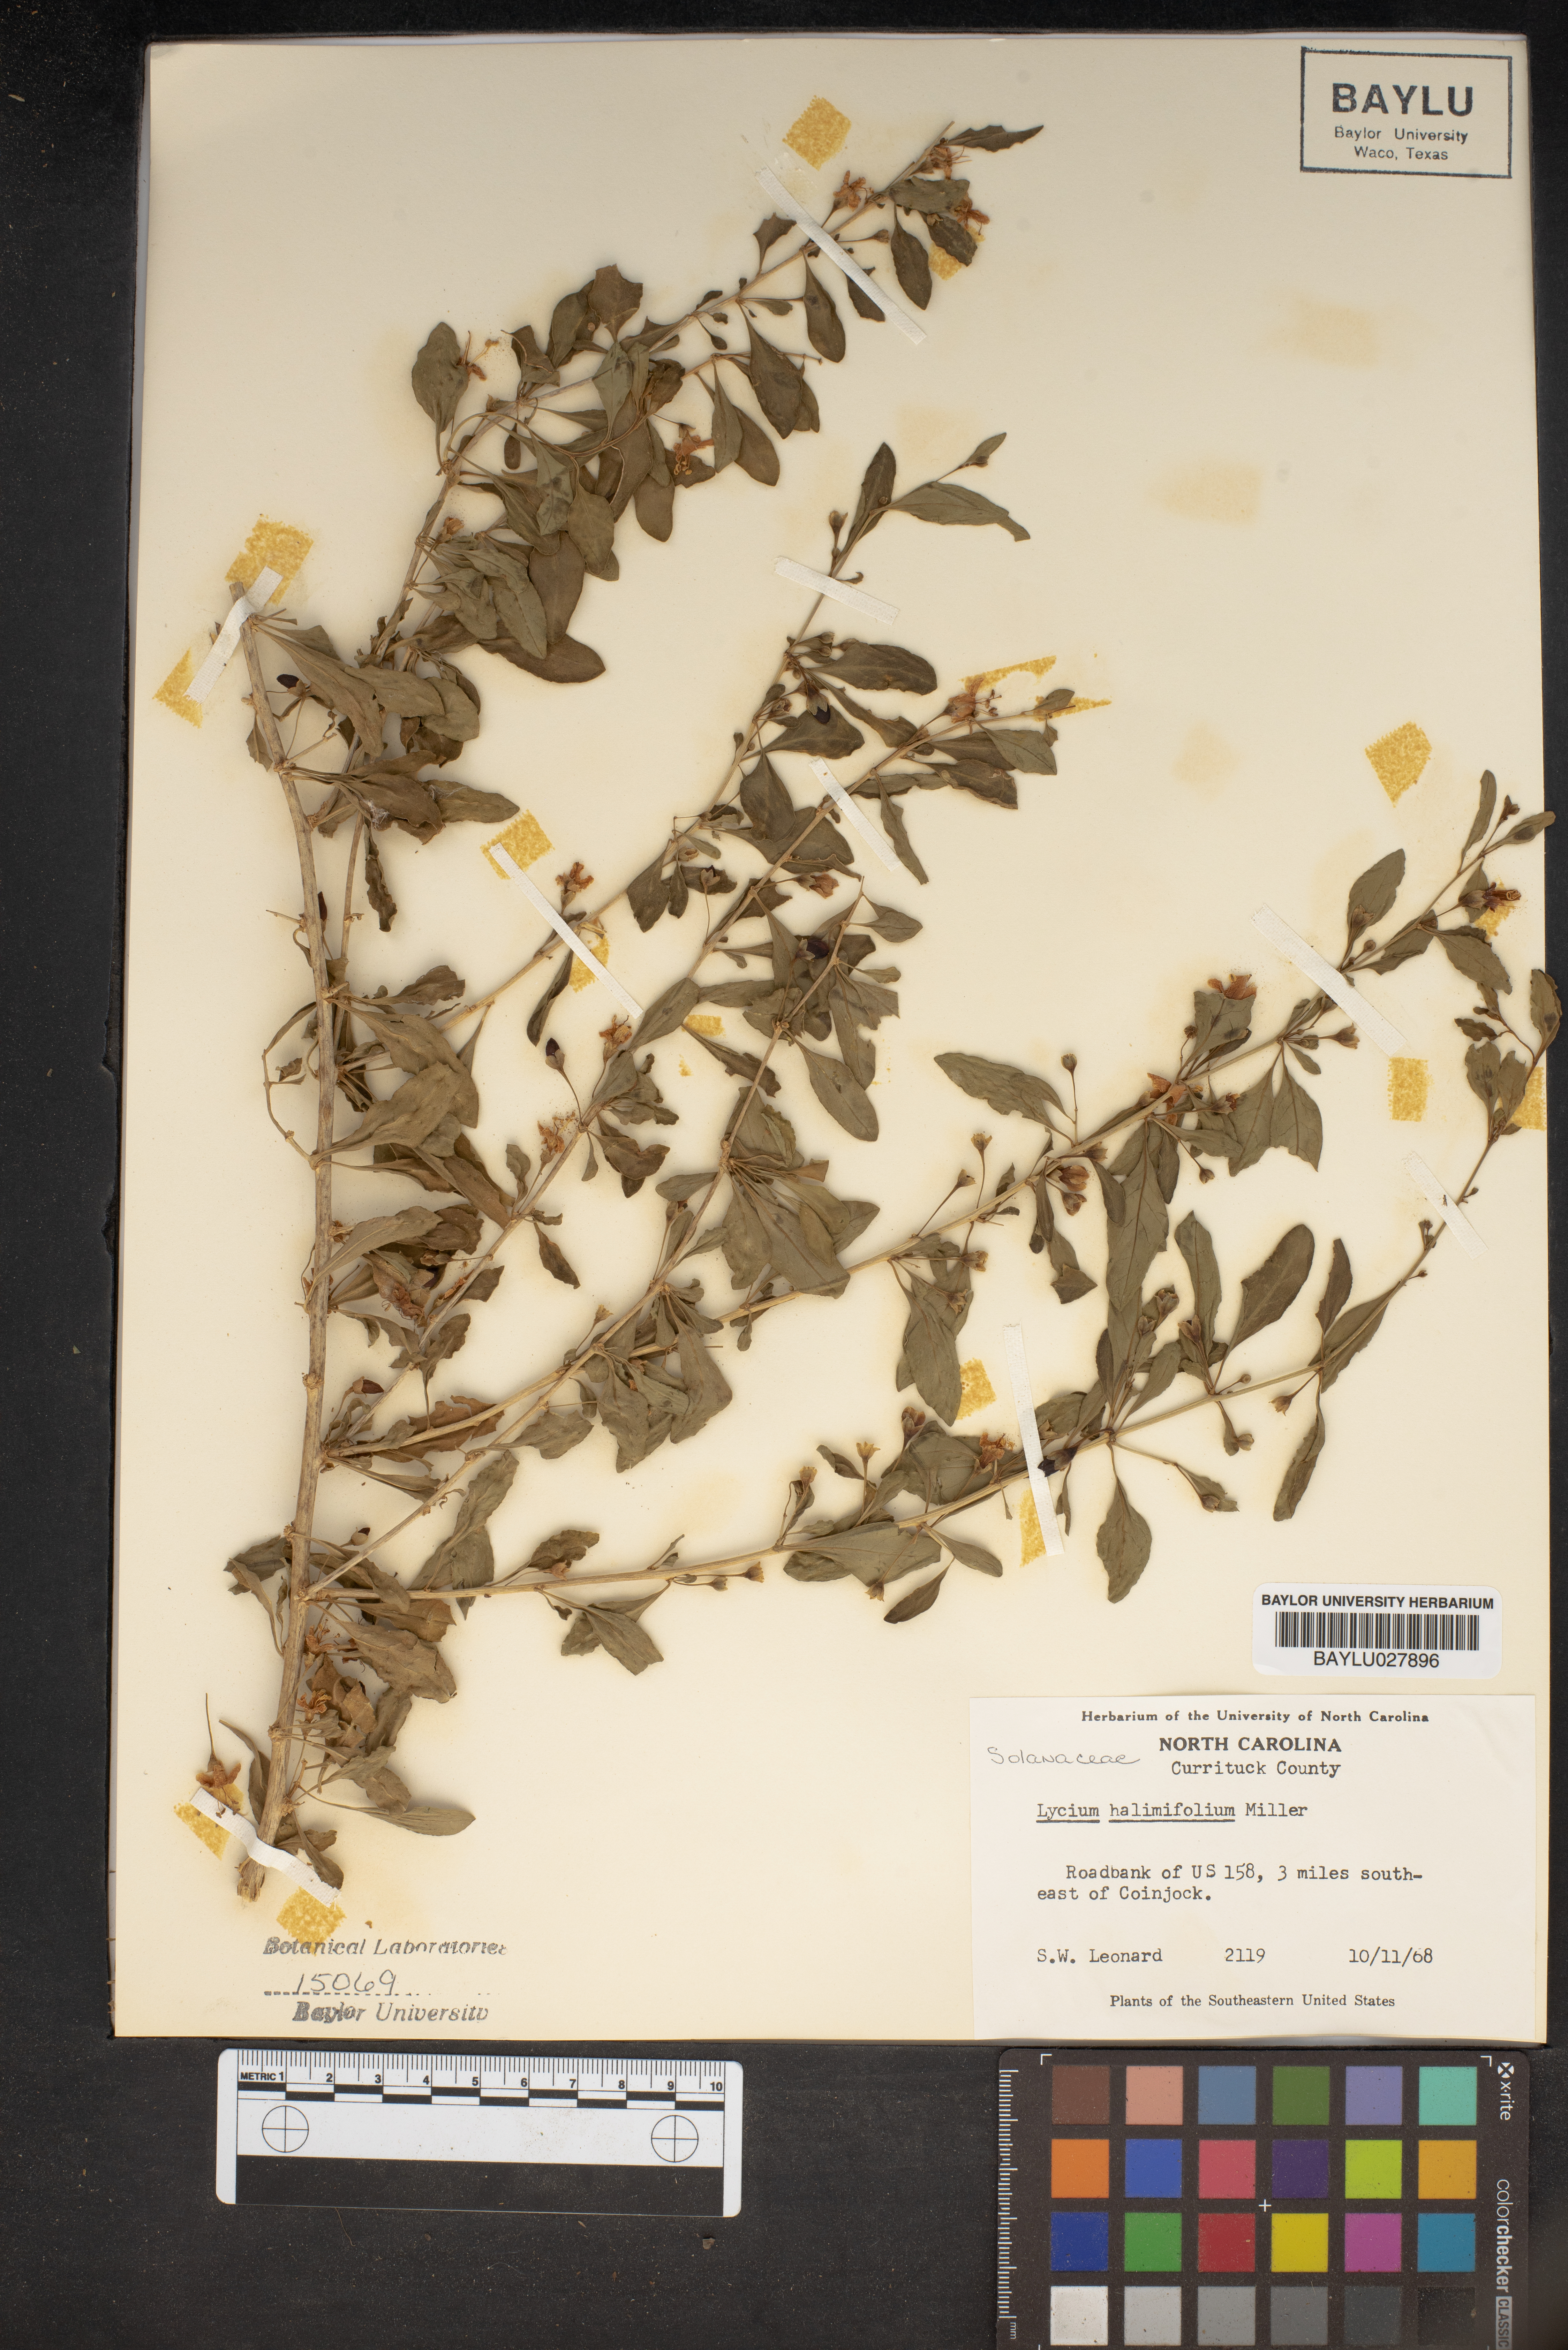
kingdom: Plantae
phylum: Tracheophyta
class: Magnoliopsida
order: Solanales
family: Solanaceae
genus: Lycium
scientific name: Lycium barbarum
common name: Duke of argyll's teaplant
